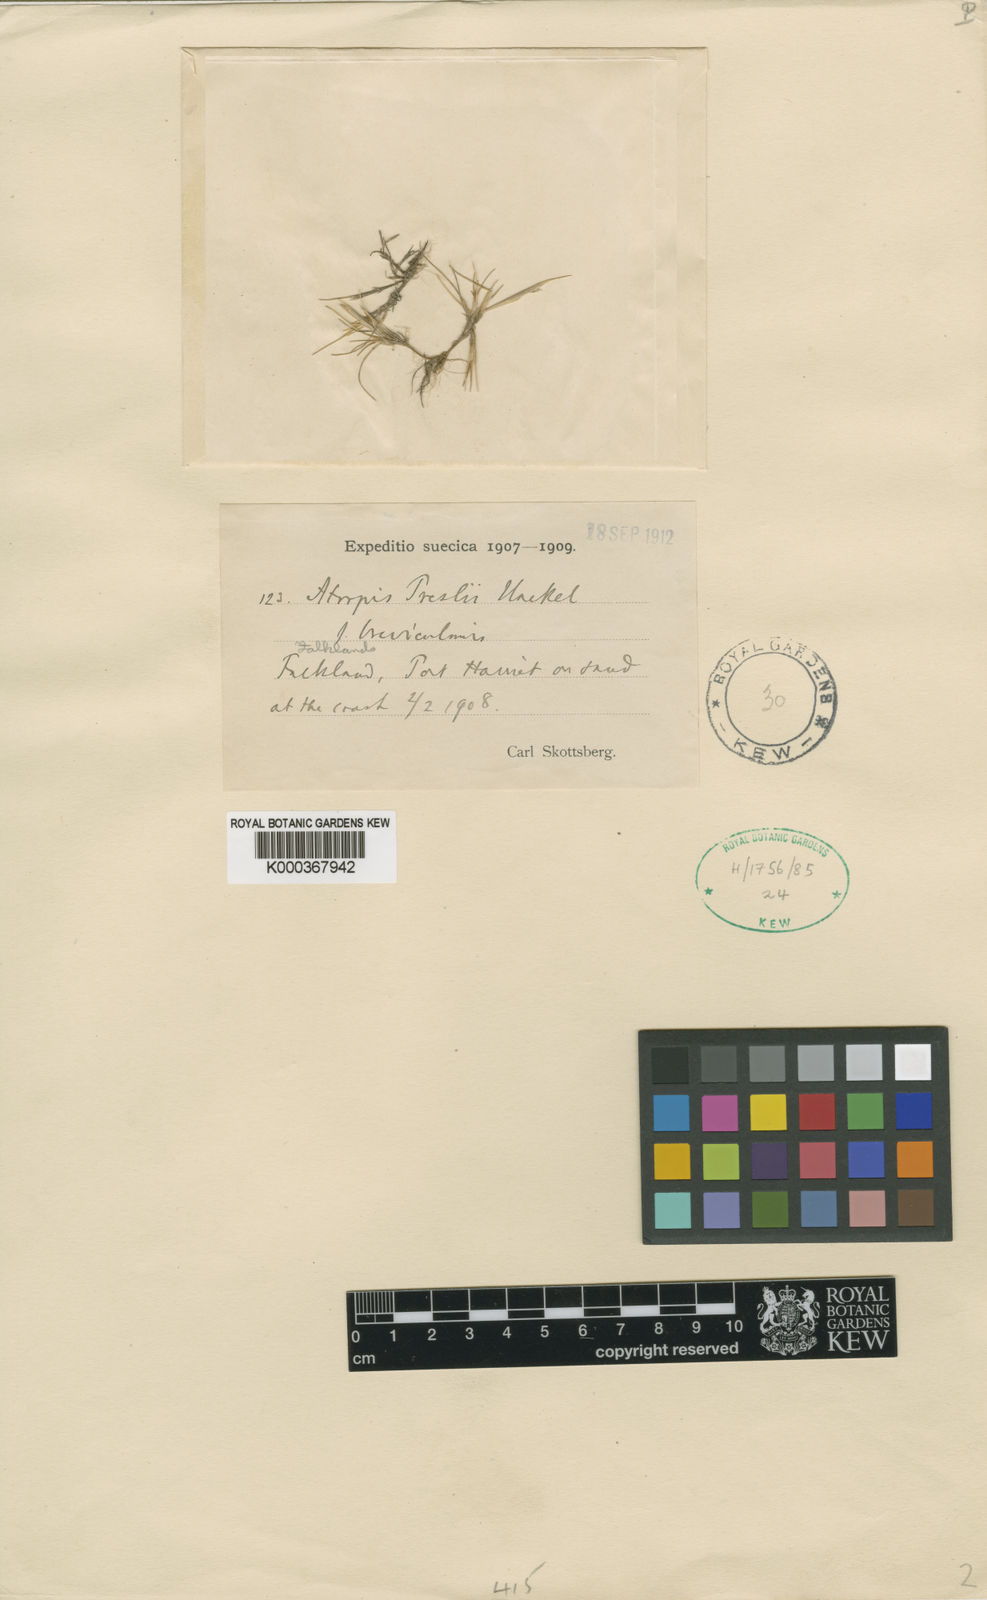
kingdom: Plantae
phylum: Tracheophyta
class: Liliopsida
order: Poales
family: Poaceae
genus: Puccinellia
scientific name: Puccinellia pusilla
